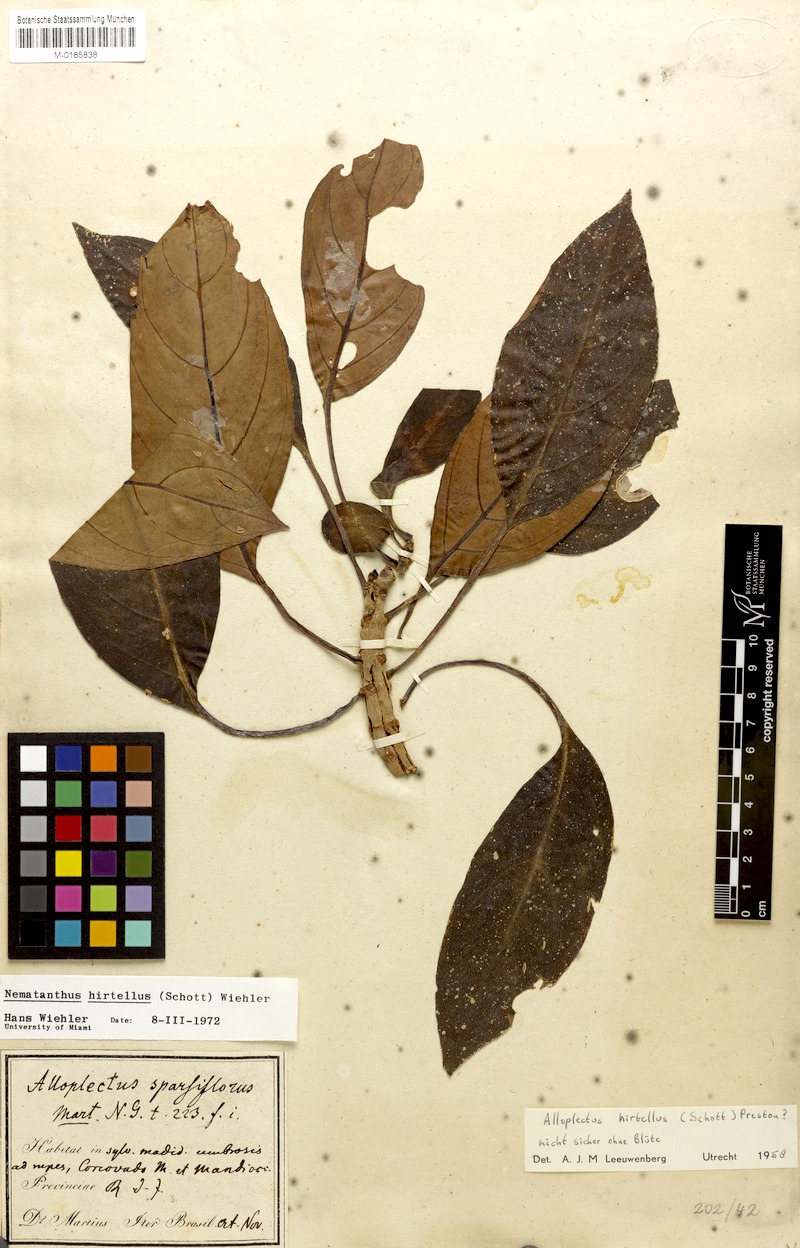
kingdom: Plantae
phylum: Tracheophyta
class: Magnoliopsida
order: Lamiales
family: Gesneriaceae
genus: Nematanthus
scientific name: Nematanthus hirtellus
